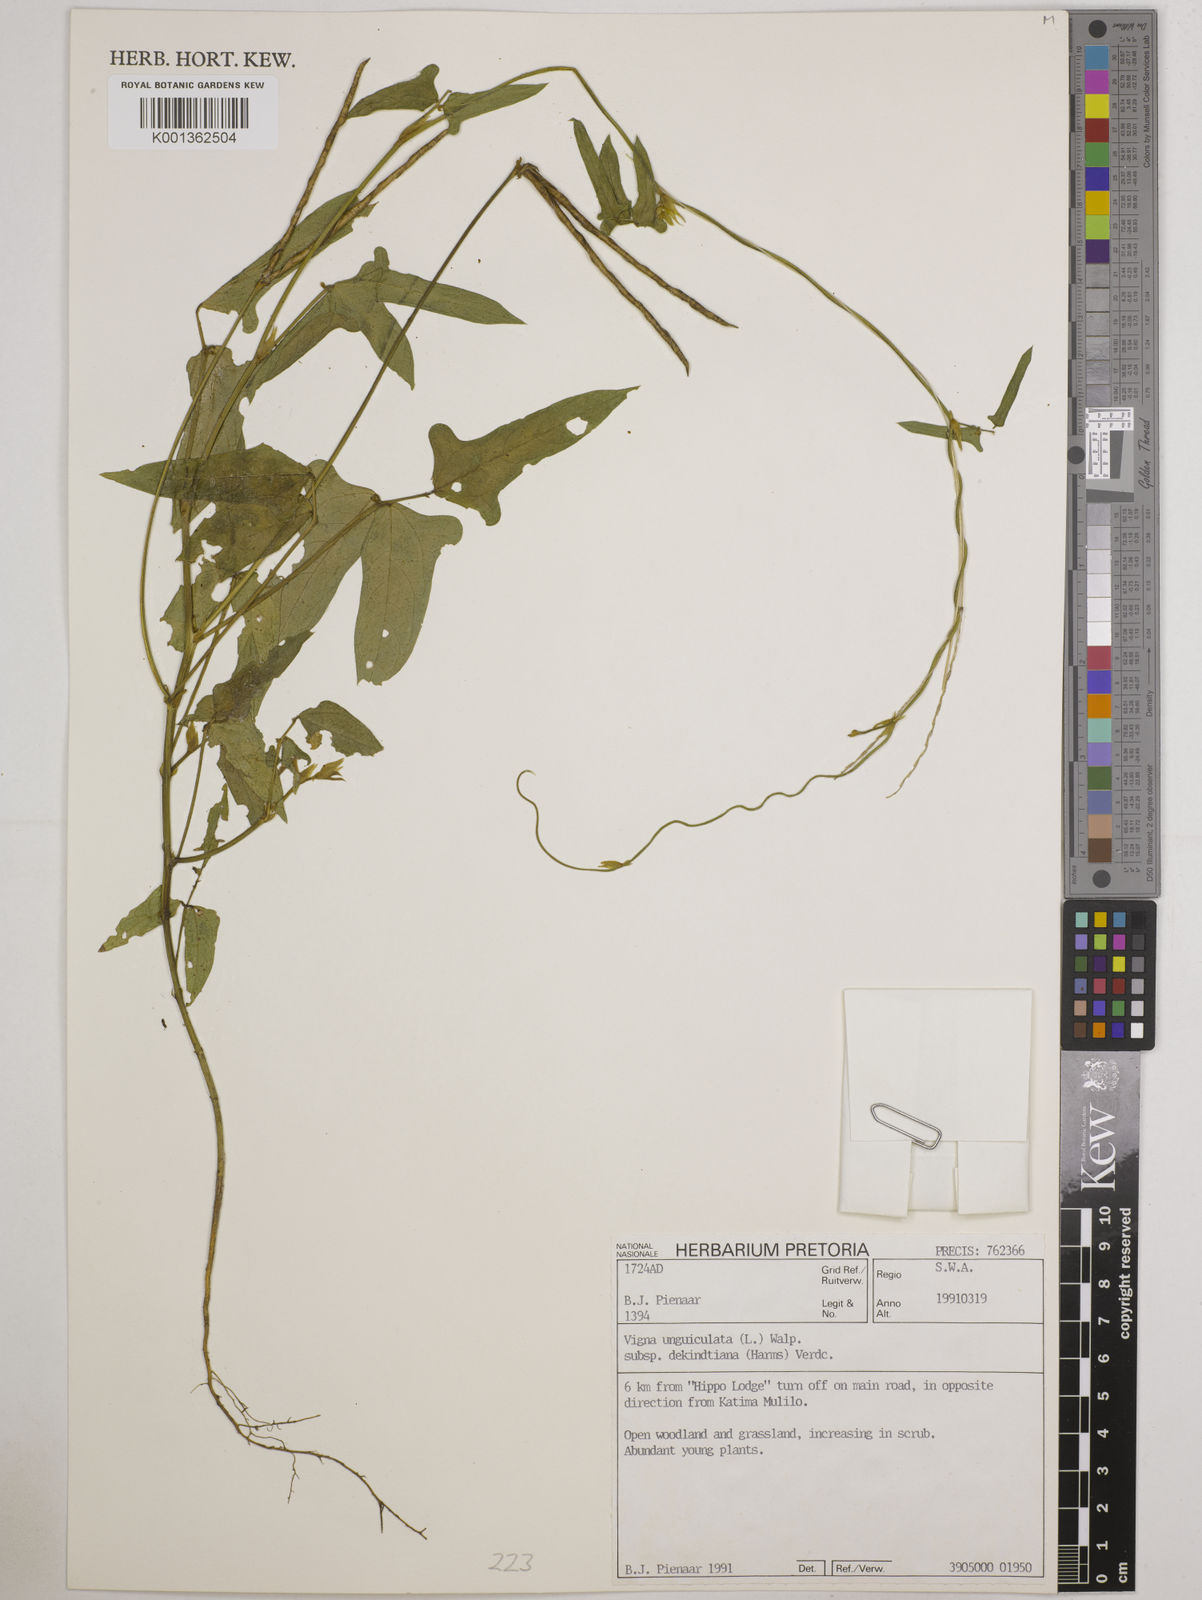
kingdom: Plantae
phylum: Tracheophyta
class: Magnoliopsida
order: Fabales
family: Fabaceae
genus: Vigna
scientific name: Vigna
